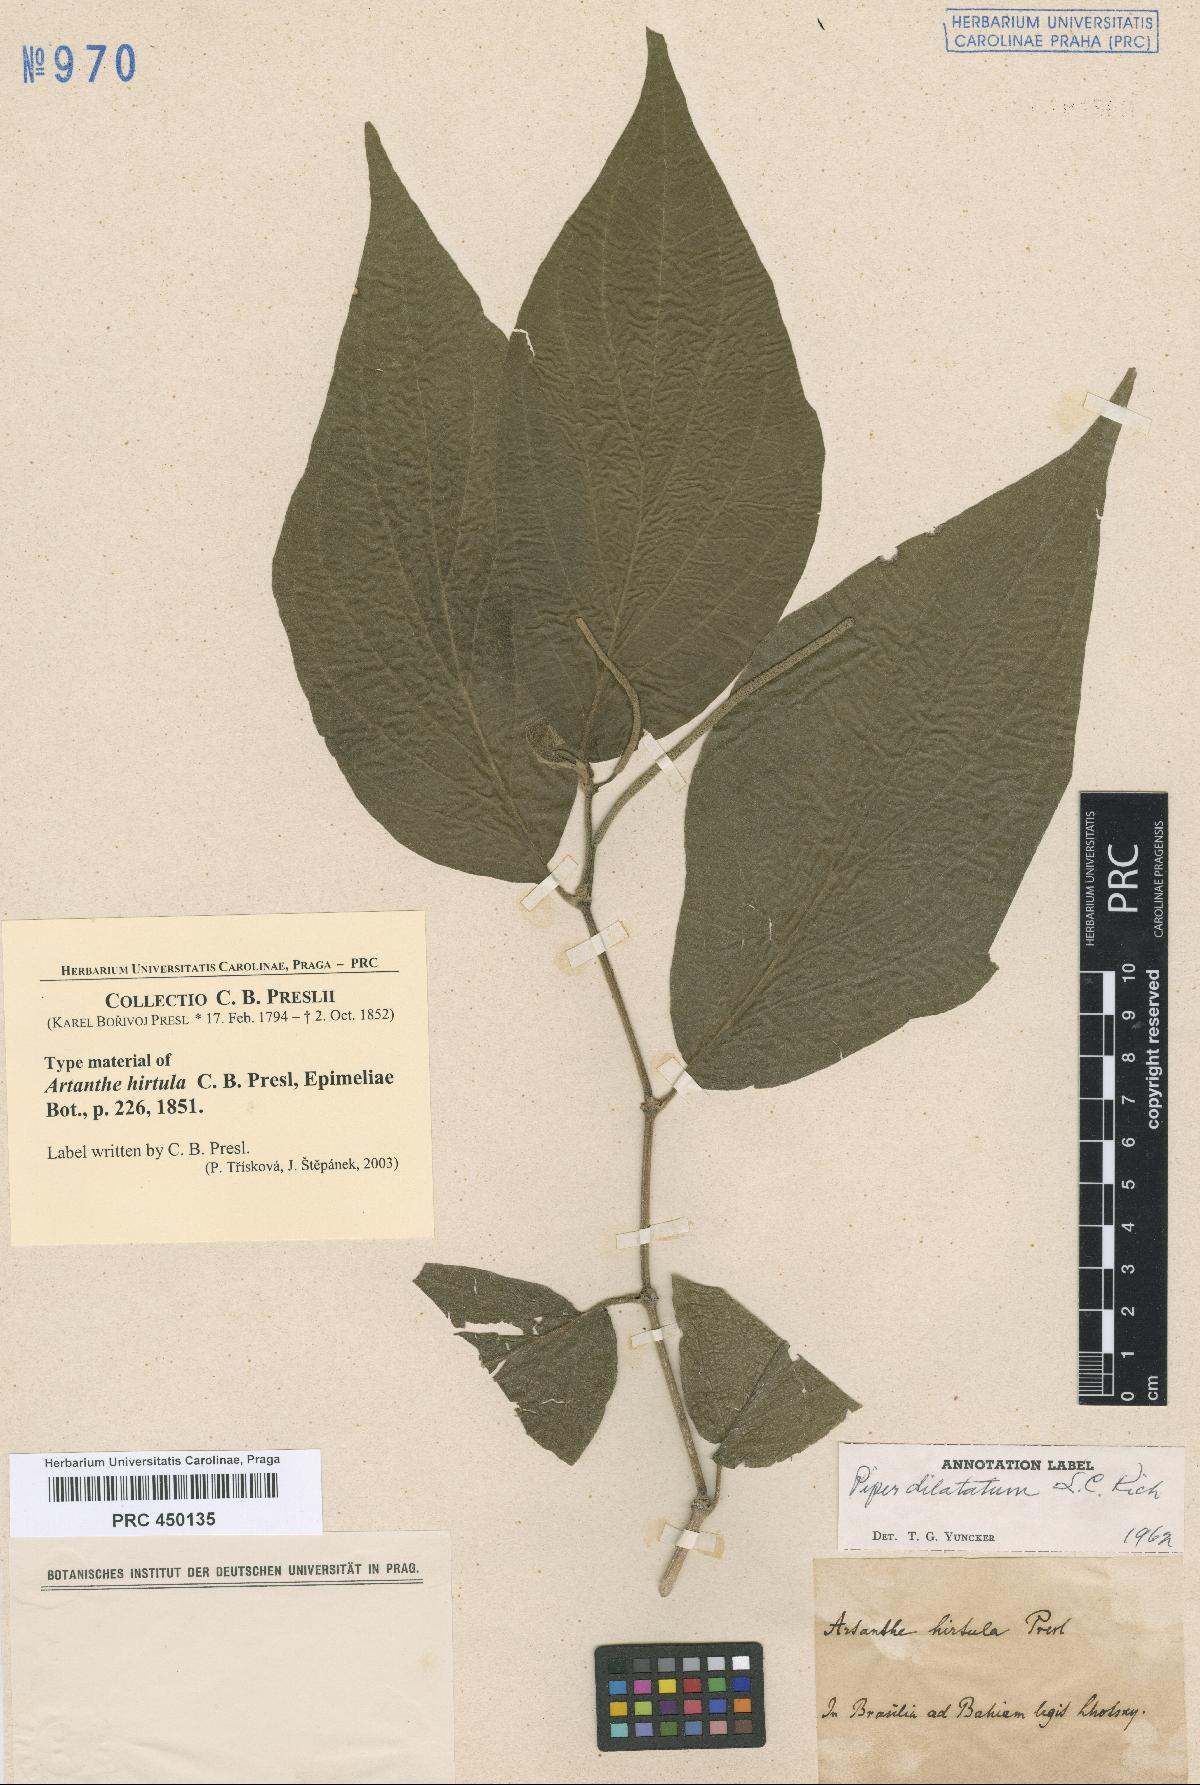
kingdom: Plantae
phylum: Tracheophyta
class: Magnoliopsida
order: Piperales
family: Piperaceae
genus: Piper
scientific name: Piper dilatatum
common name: Higuillo
